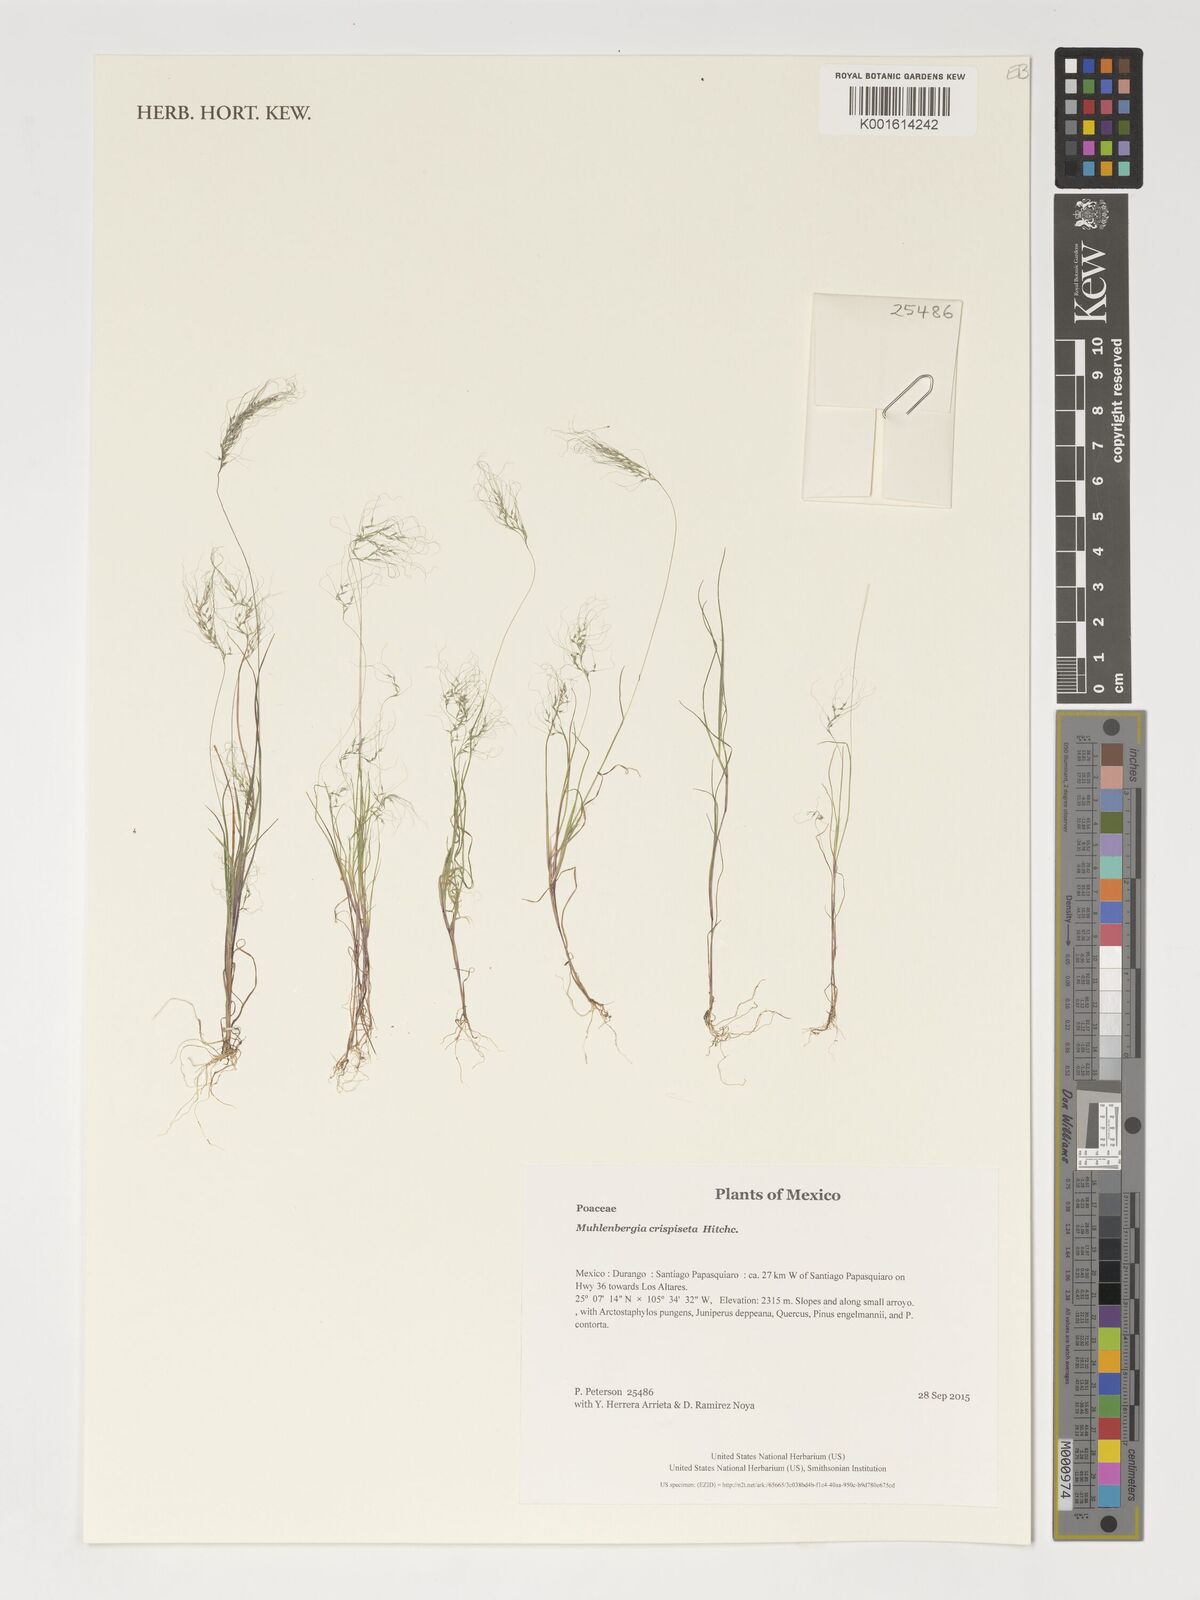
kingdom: Plantae
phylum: Tracheophyta
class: Liliopsida
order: Poales
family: Poaceae
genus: Muhlenbergia
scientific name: Muhlenbergia crispiseta
